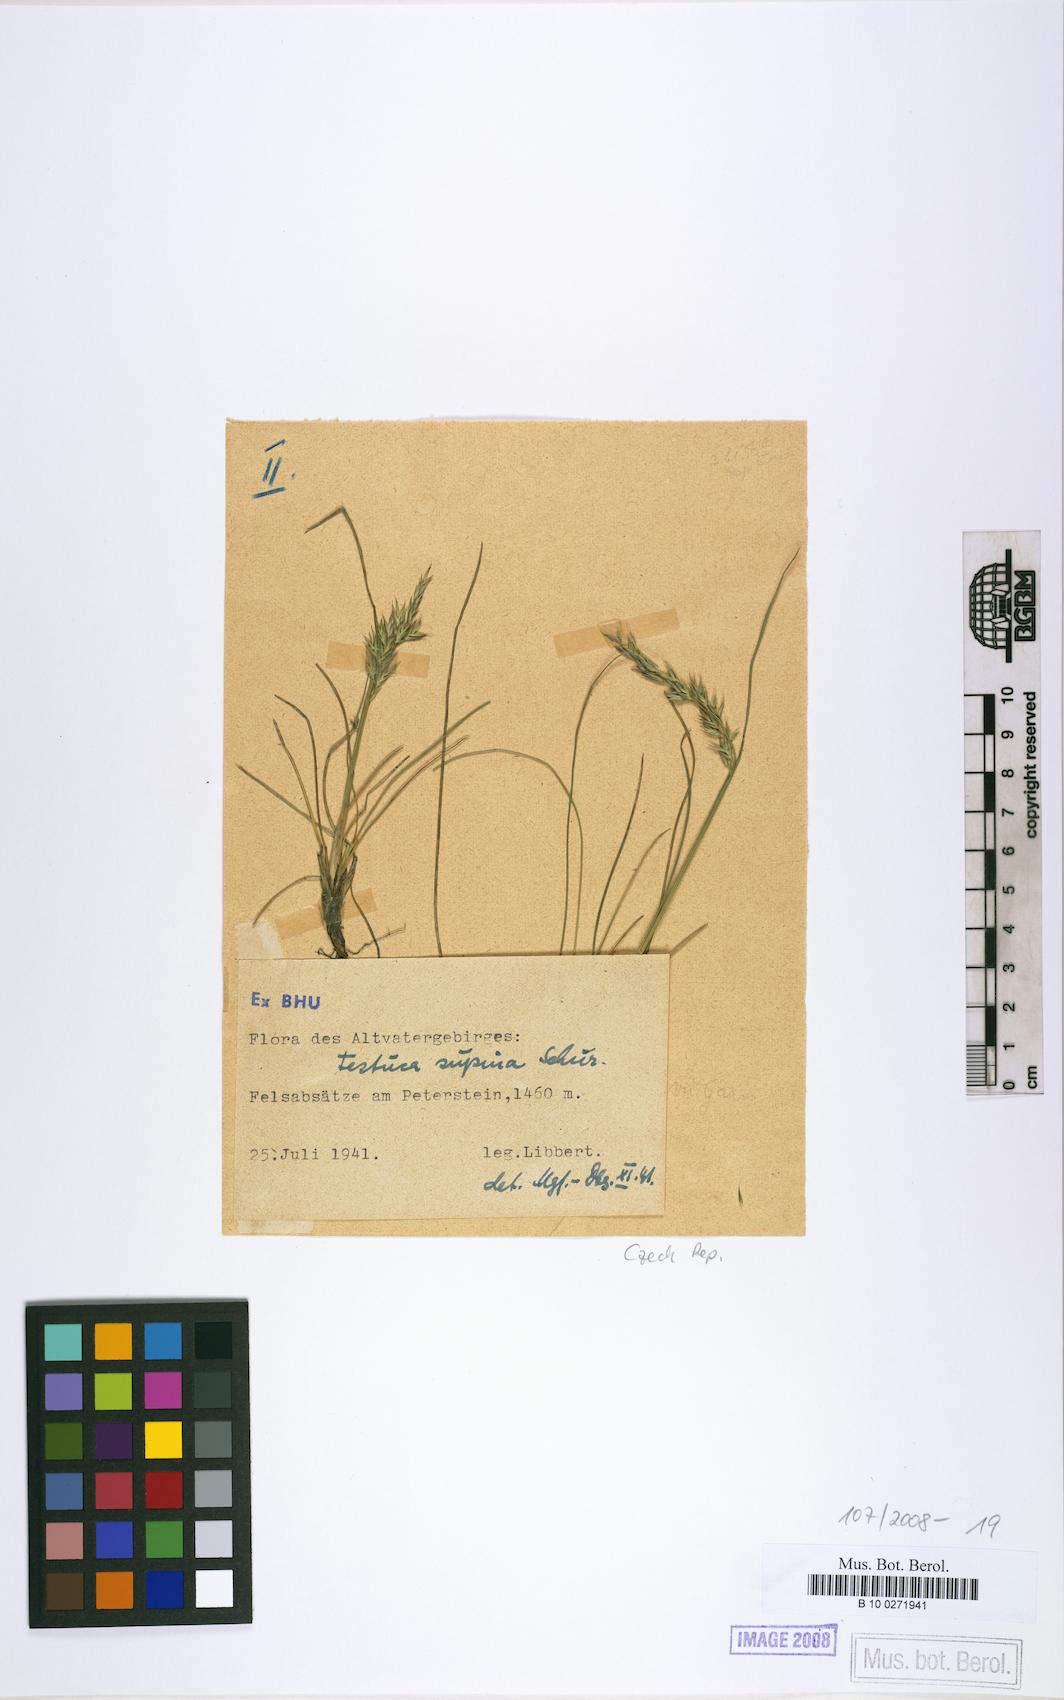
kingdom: Plantae
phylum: Tracheophyta
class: Liliopsida
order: Poales
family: Poaceae
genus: Festuca
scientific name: Festuca supina
